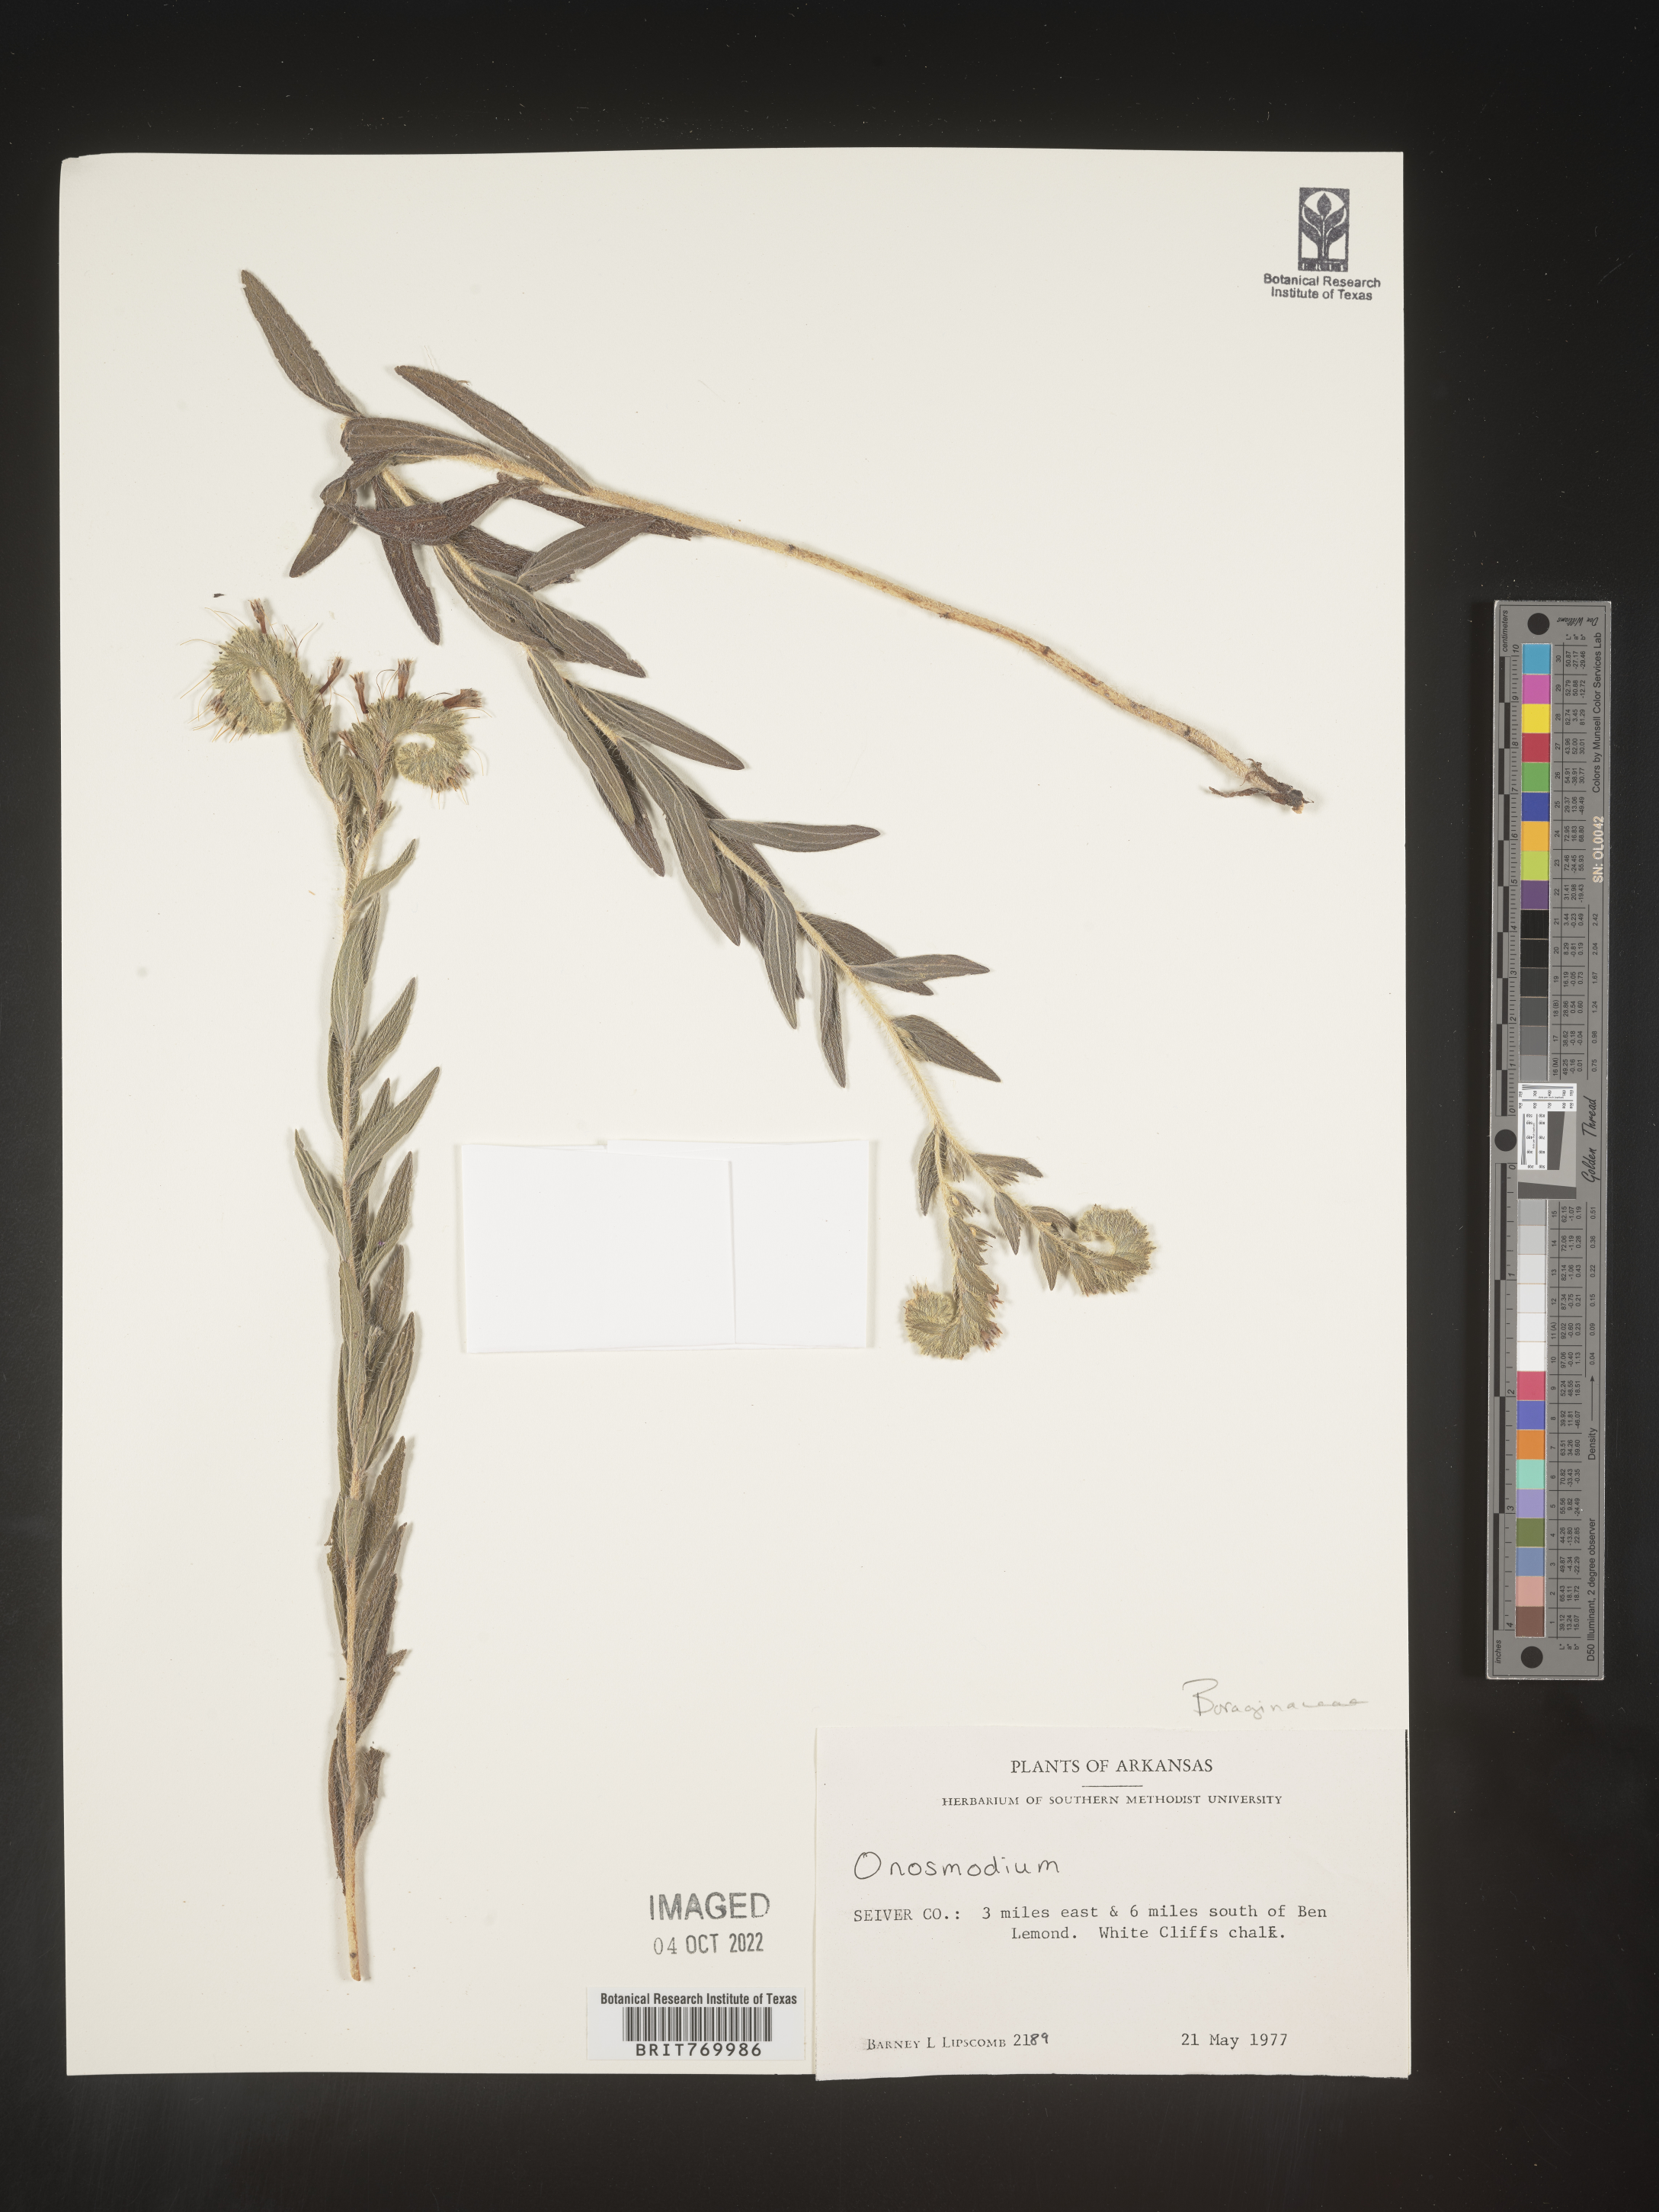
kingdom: Plantae
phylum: Tracheophyta
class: Magnoliopsida
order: Boraginales
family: Boraginaceae
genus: Lithospermum
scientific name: Lithospermum
